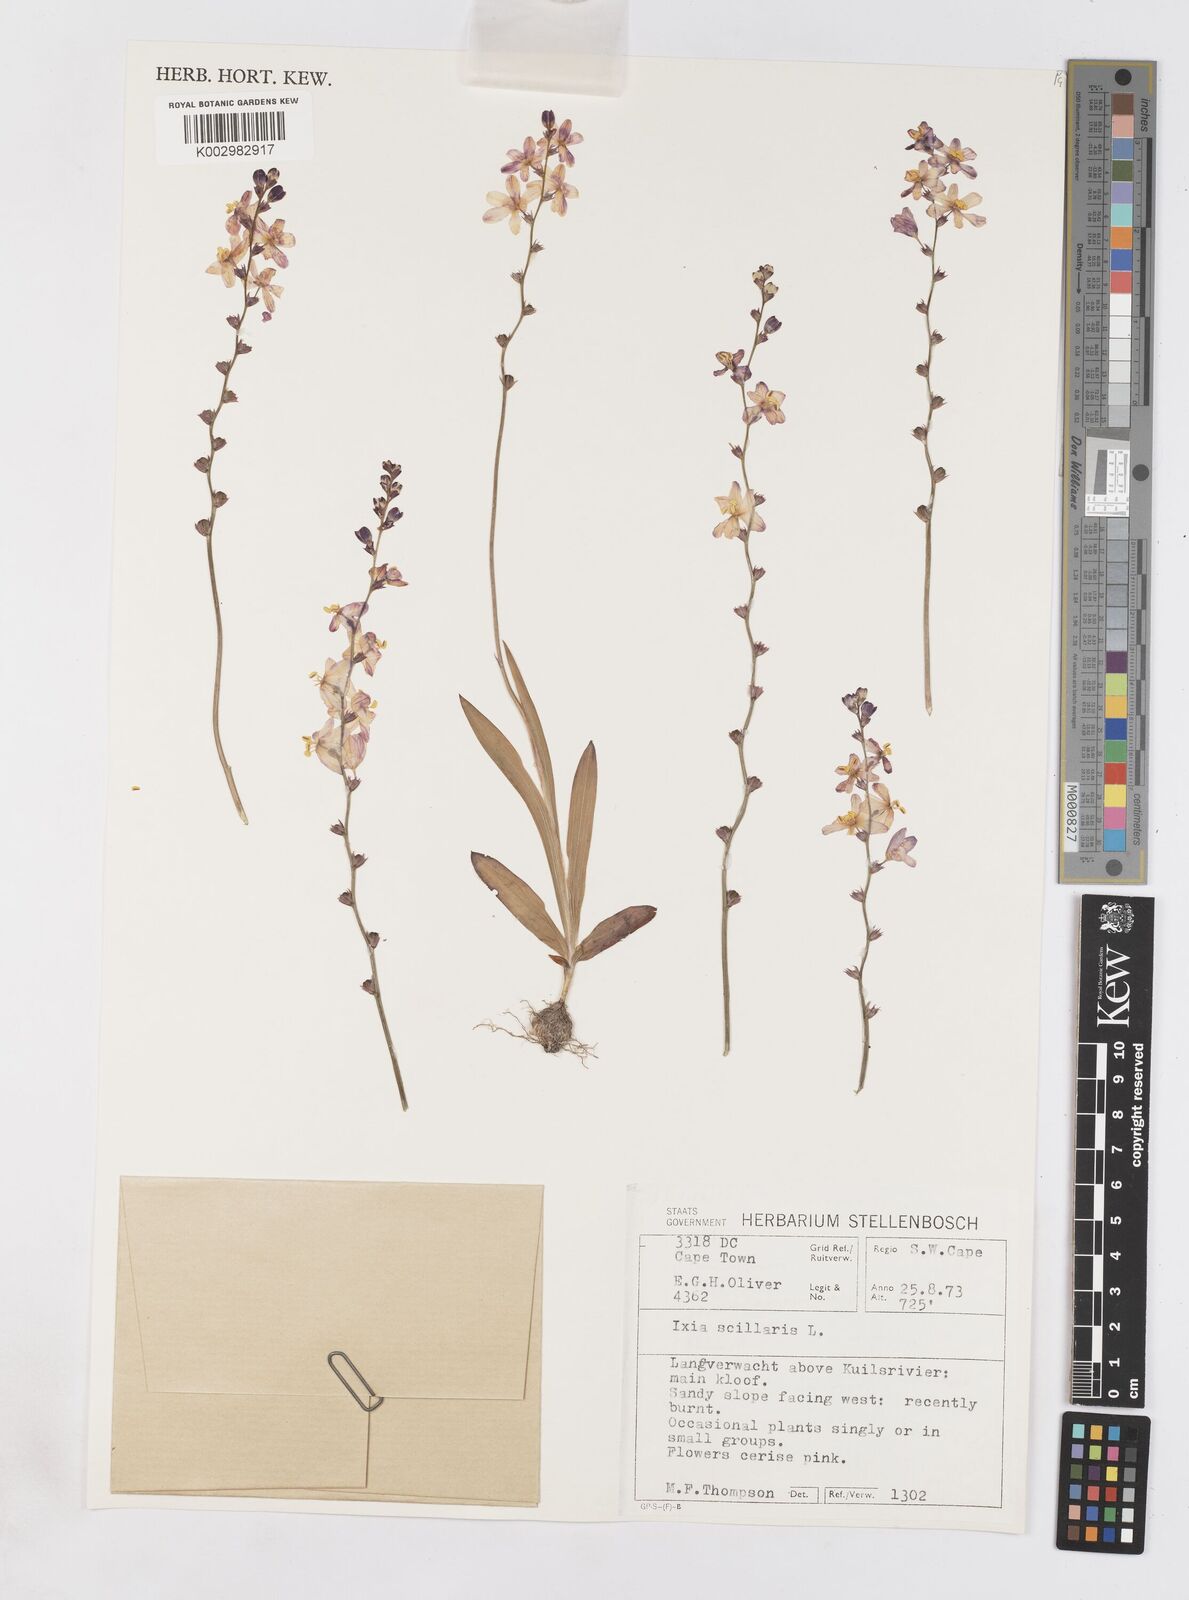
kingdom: Plantae
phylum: Tracheophyta
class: Liliopsida
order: Asparagales
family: Iridaceae
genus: Ixia
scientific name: Ixia scillaris
